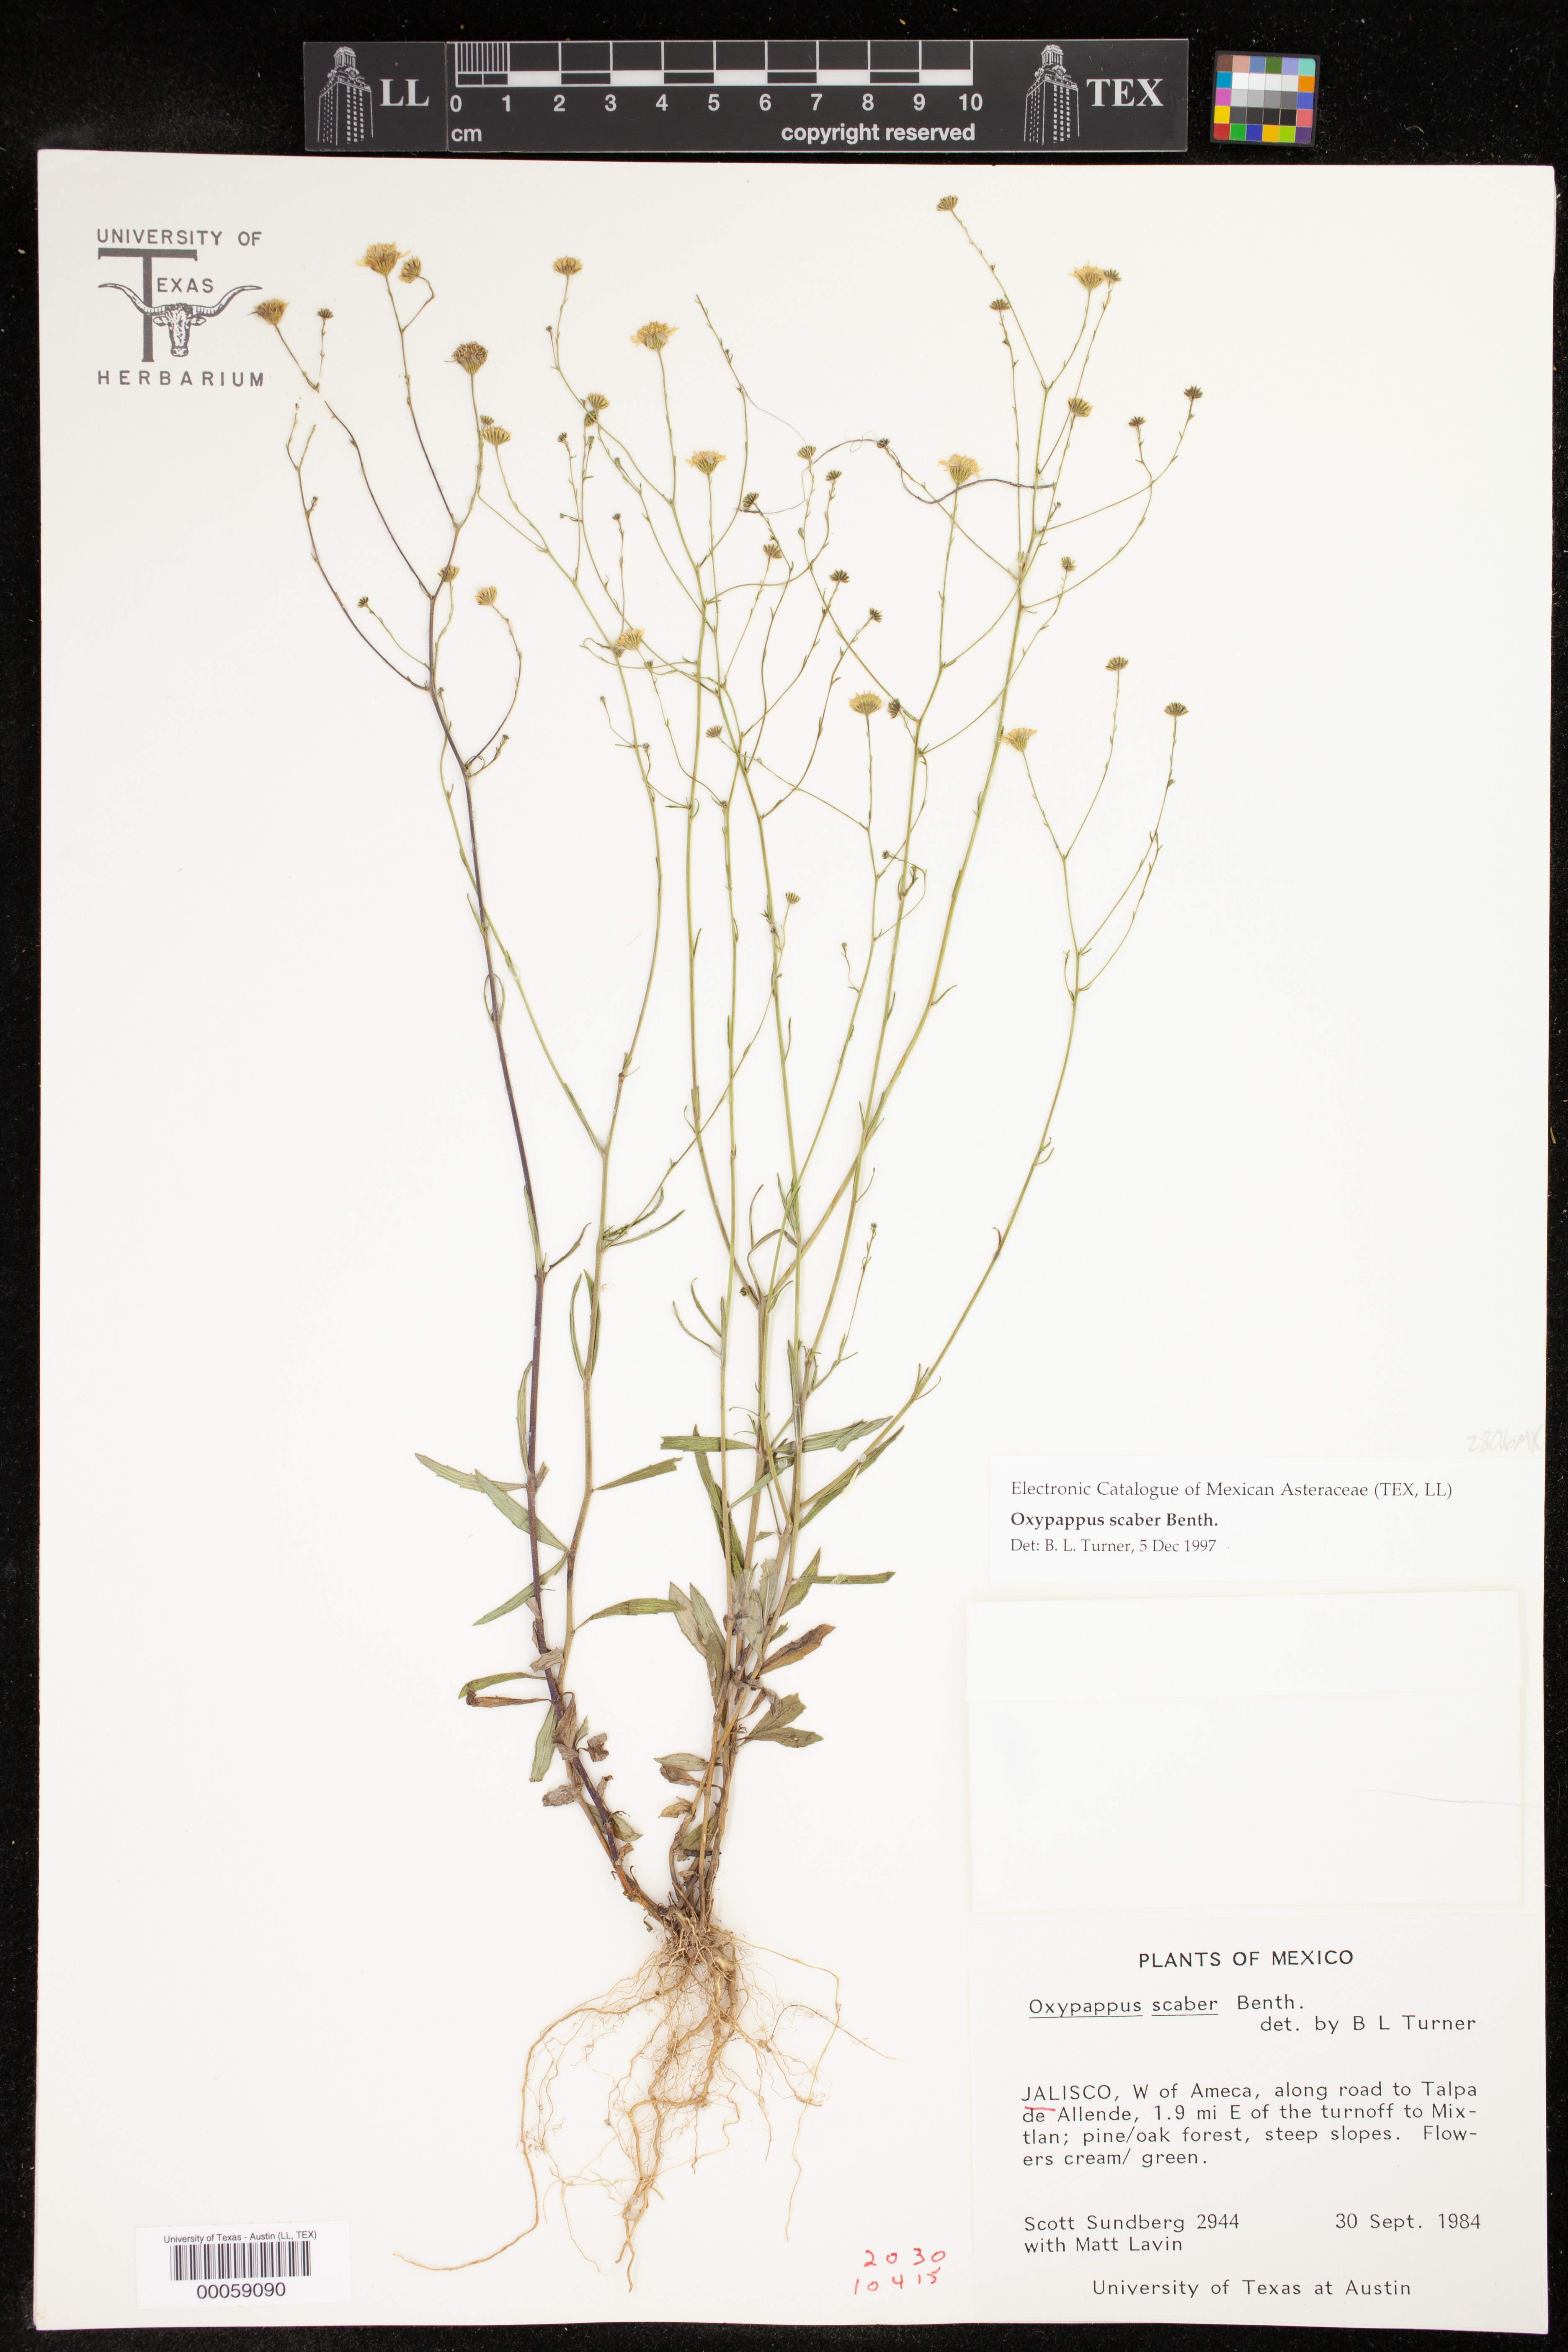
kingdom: Plantae
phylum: Tracheophyta
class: Magnoliopsida
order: Asterales
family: Asteraceae
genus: Oxypappus
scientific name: Oxypappus scaber
